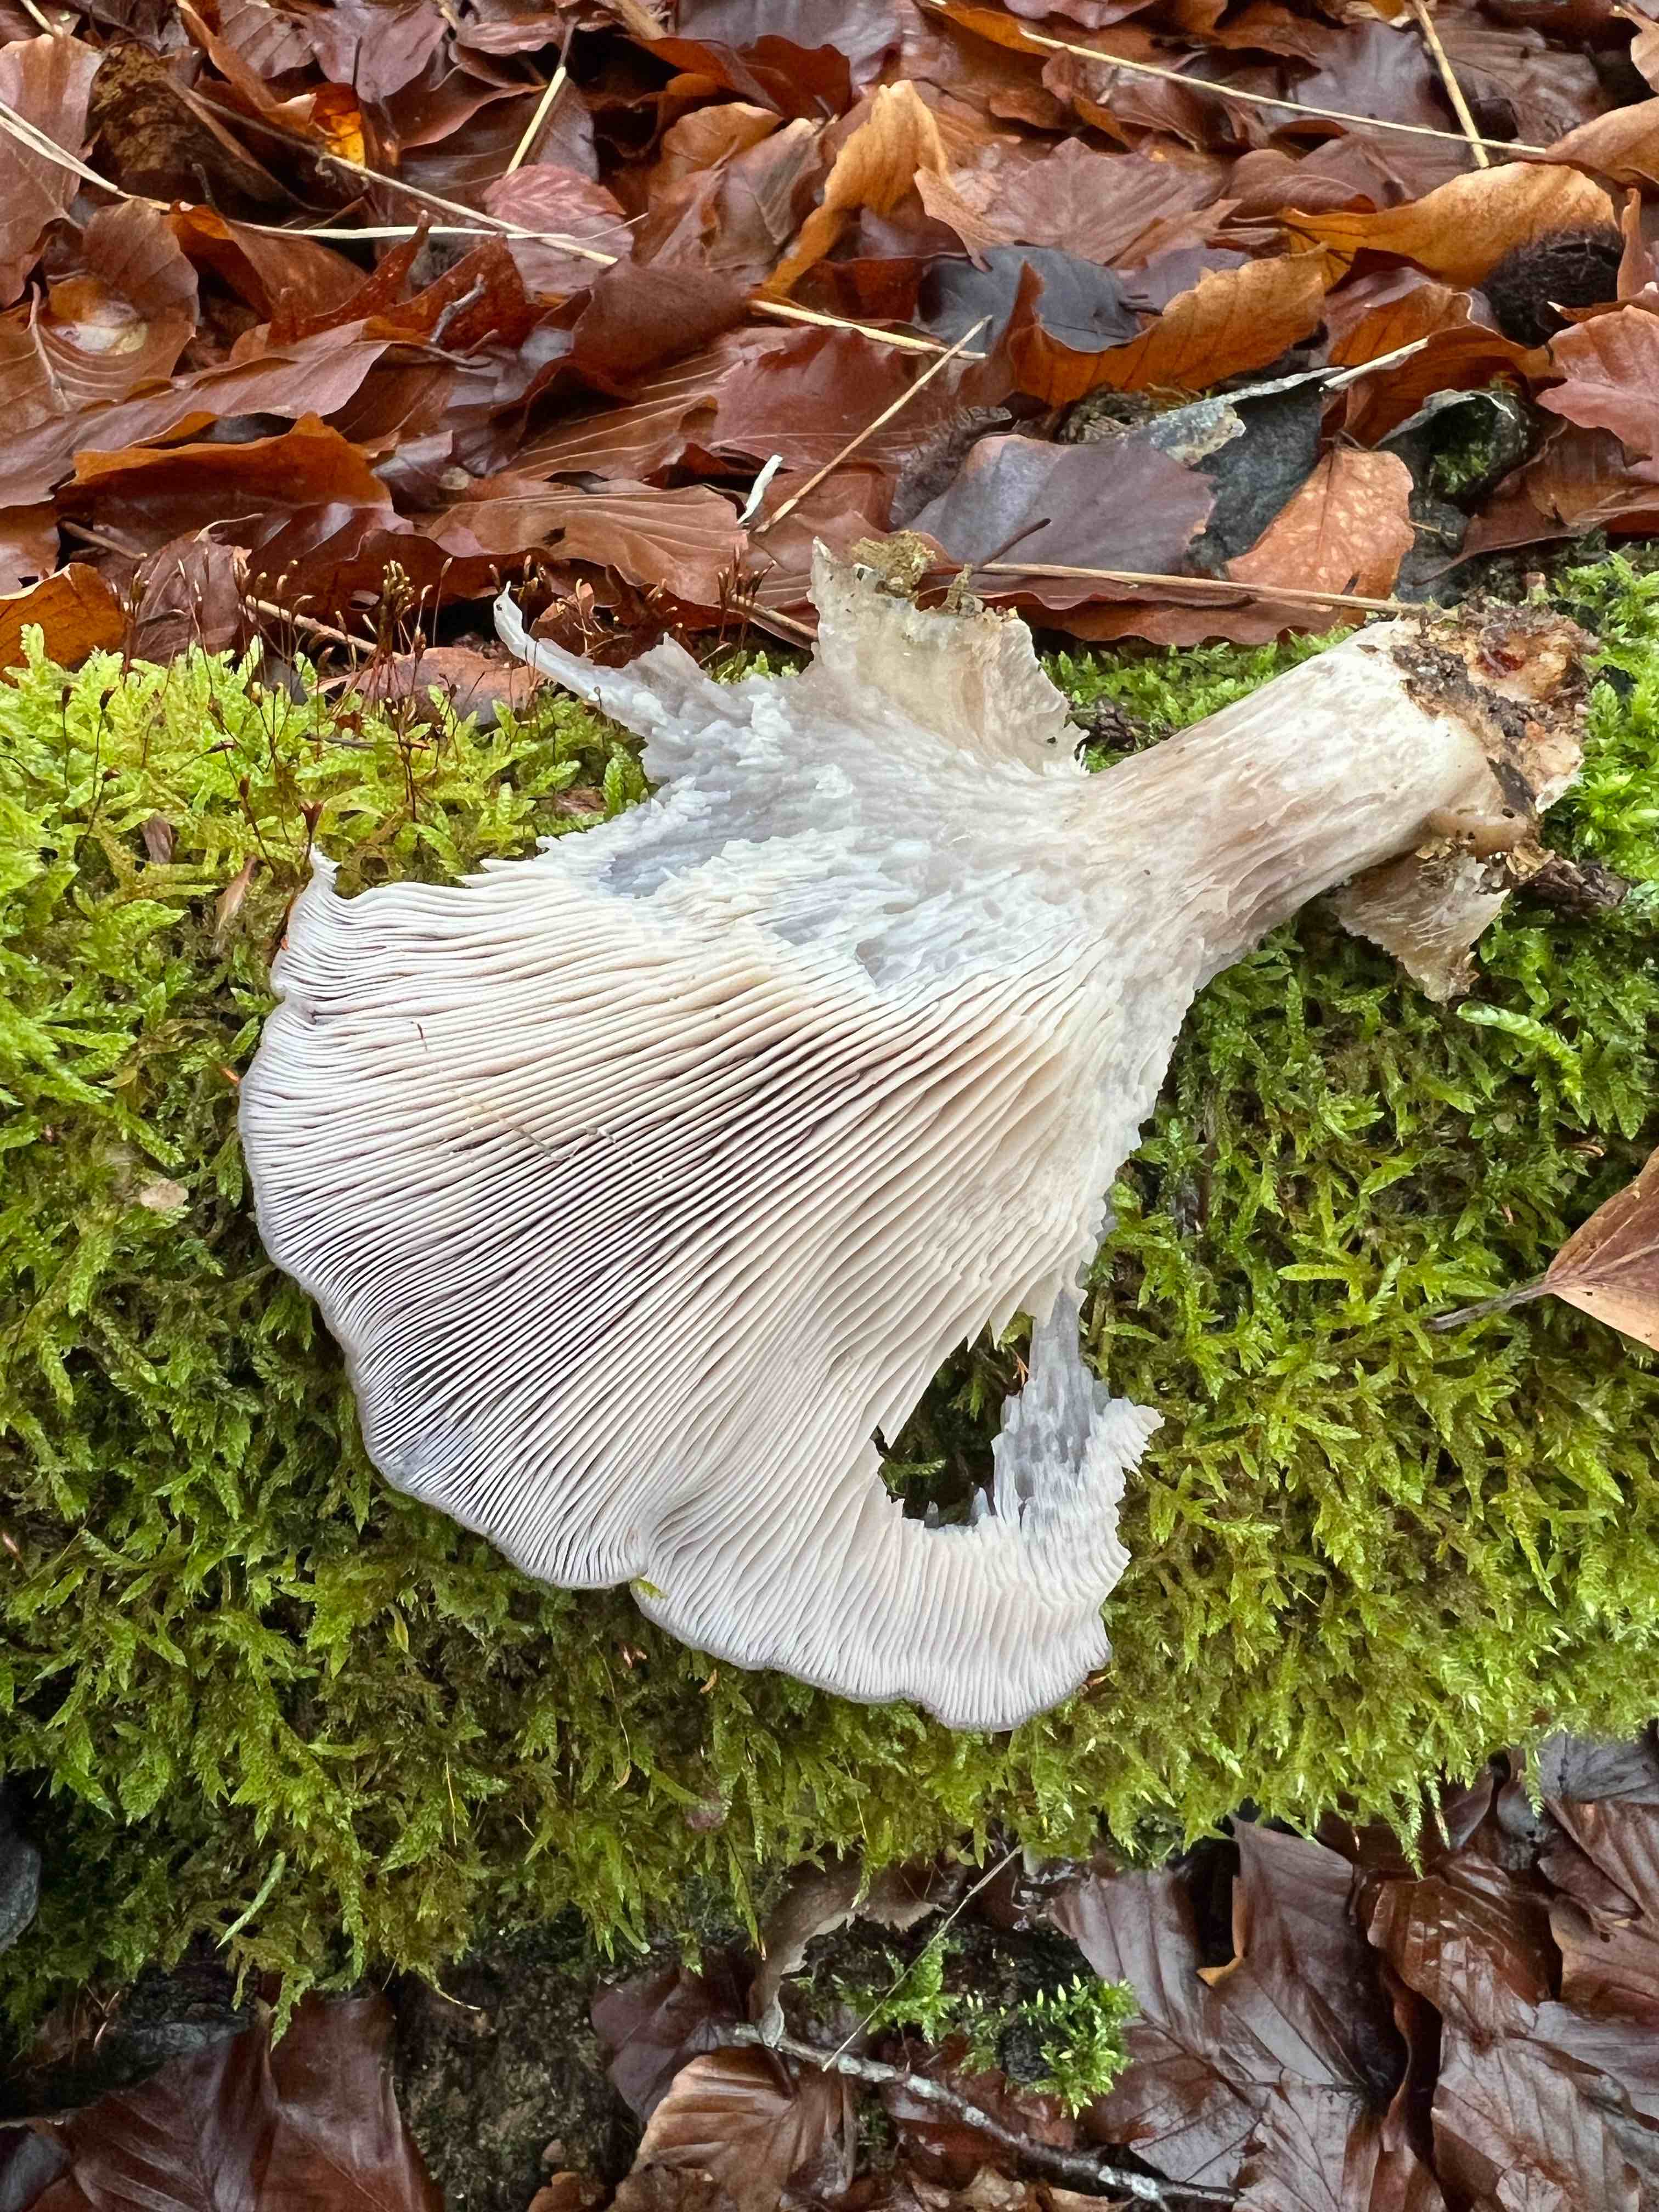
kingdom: Fungi
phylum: Basidiomycota
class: Agaricomycetes
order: Agaricales
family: Pleurotaceae
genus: Pleurotus
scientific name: Pleurotus ostreatus
